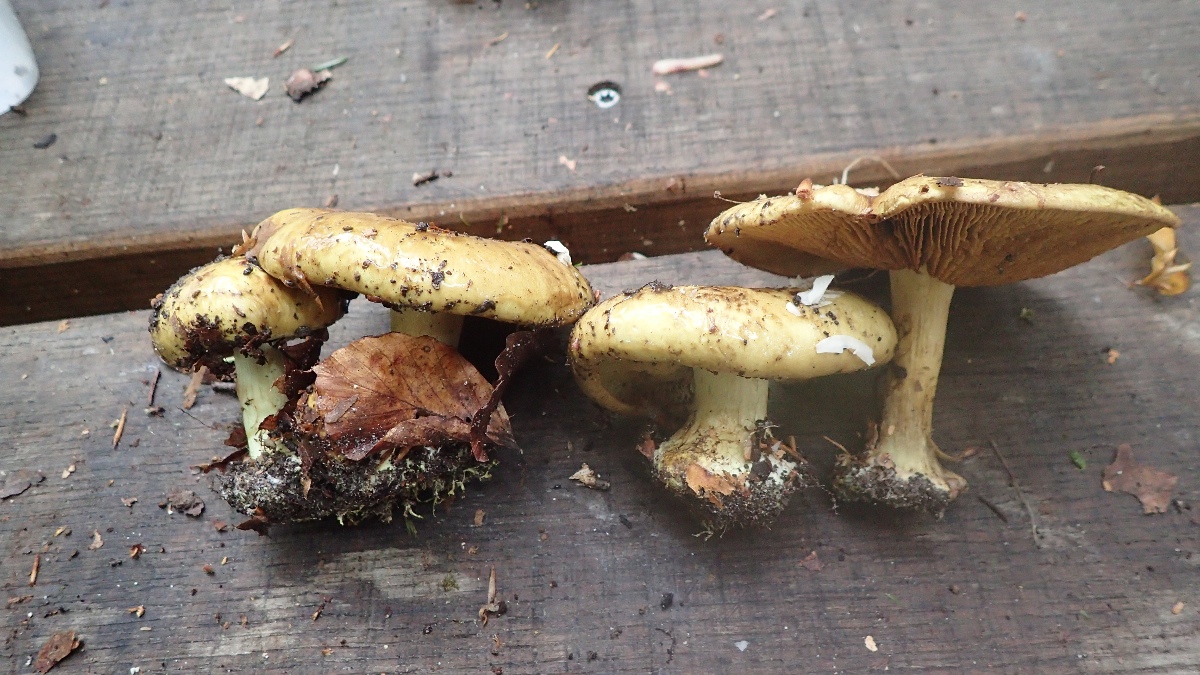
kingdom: Fungi
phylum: Basidiomycota
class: Agaricomycetes
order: Agaricales
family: Cortinariaceae
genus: Calonarius
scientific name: Calonarius citrinus
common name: citrongul slørhat
